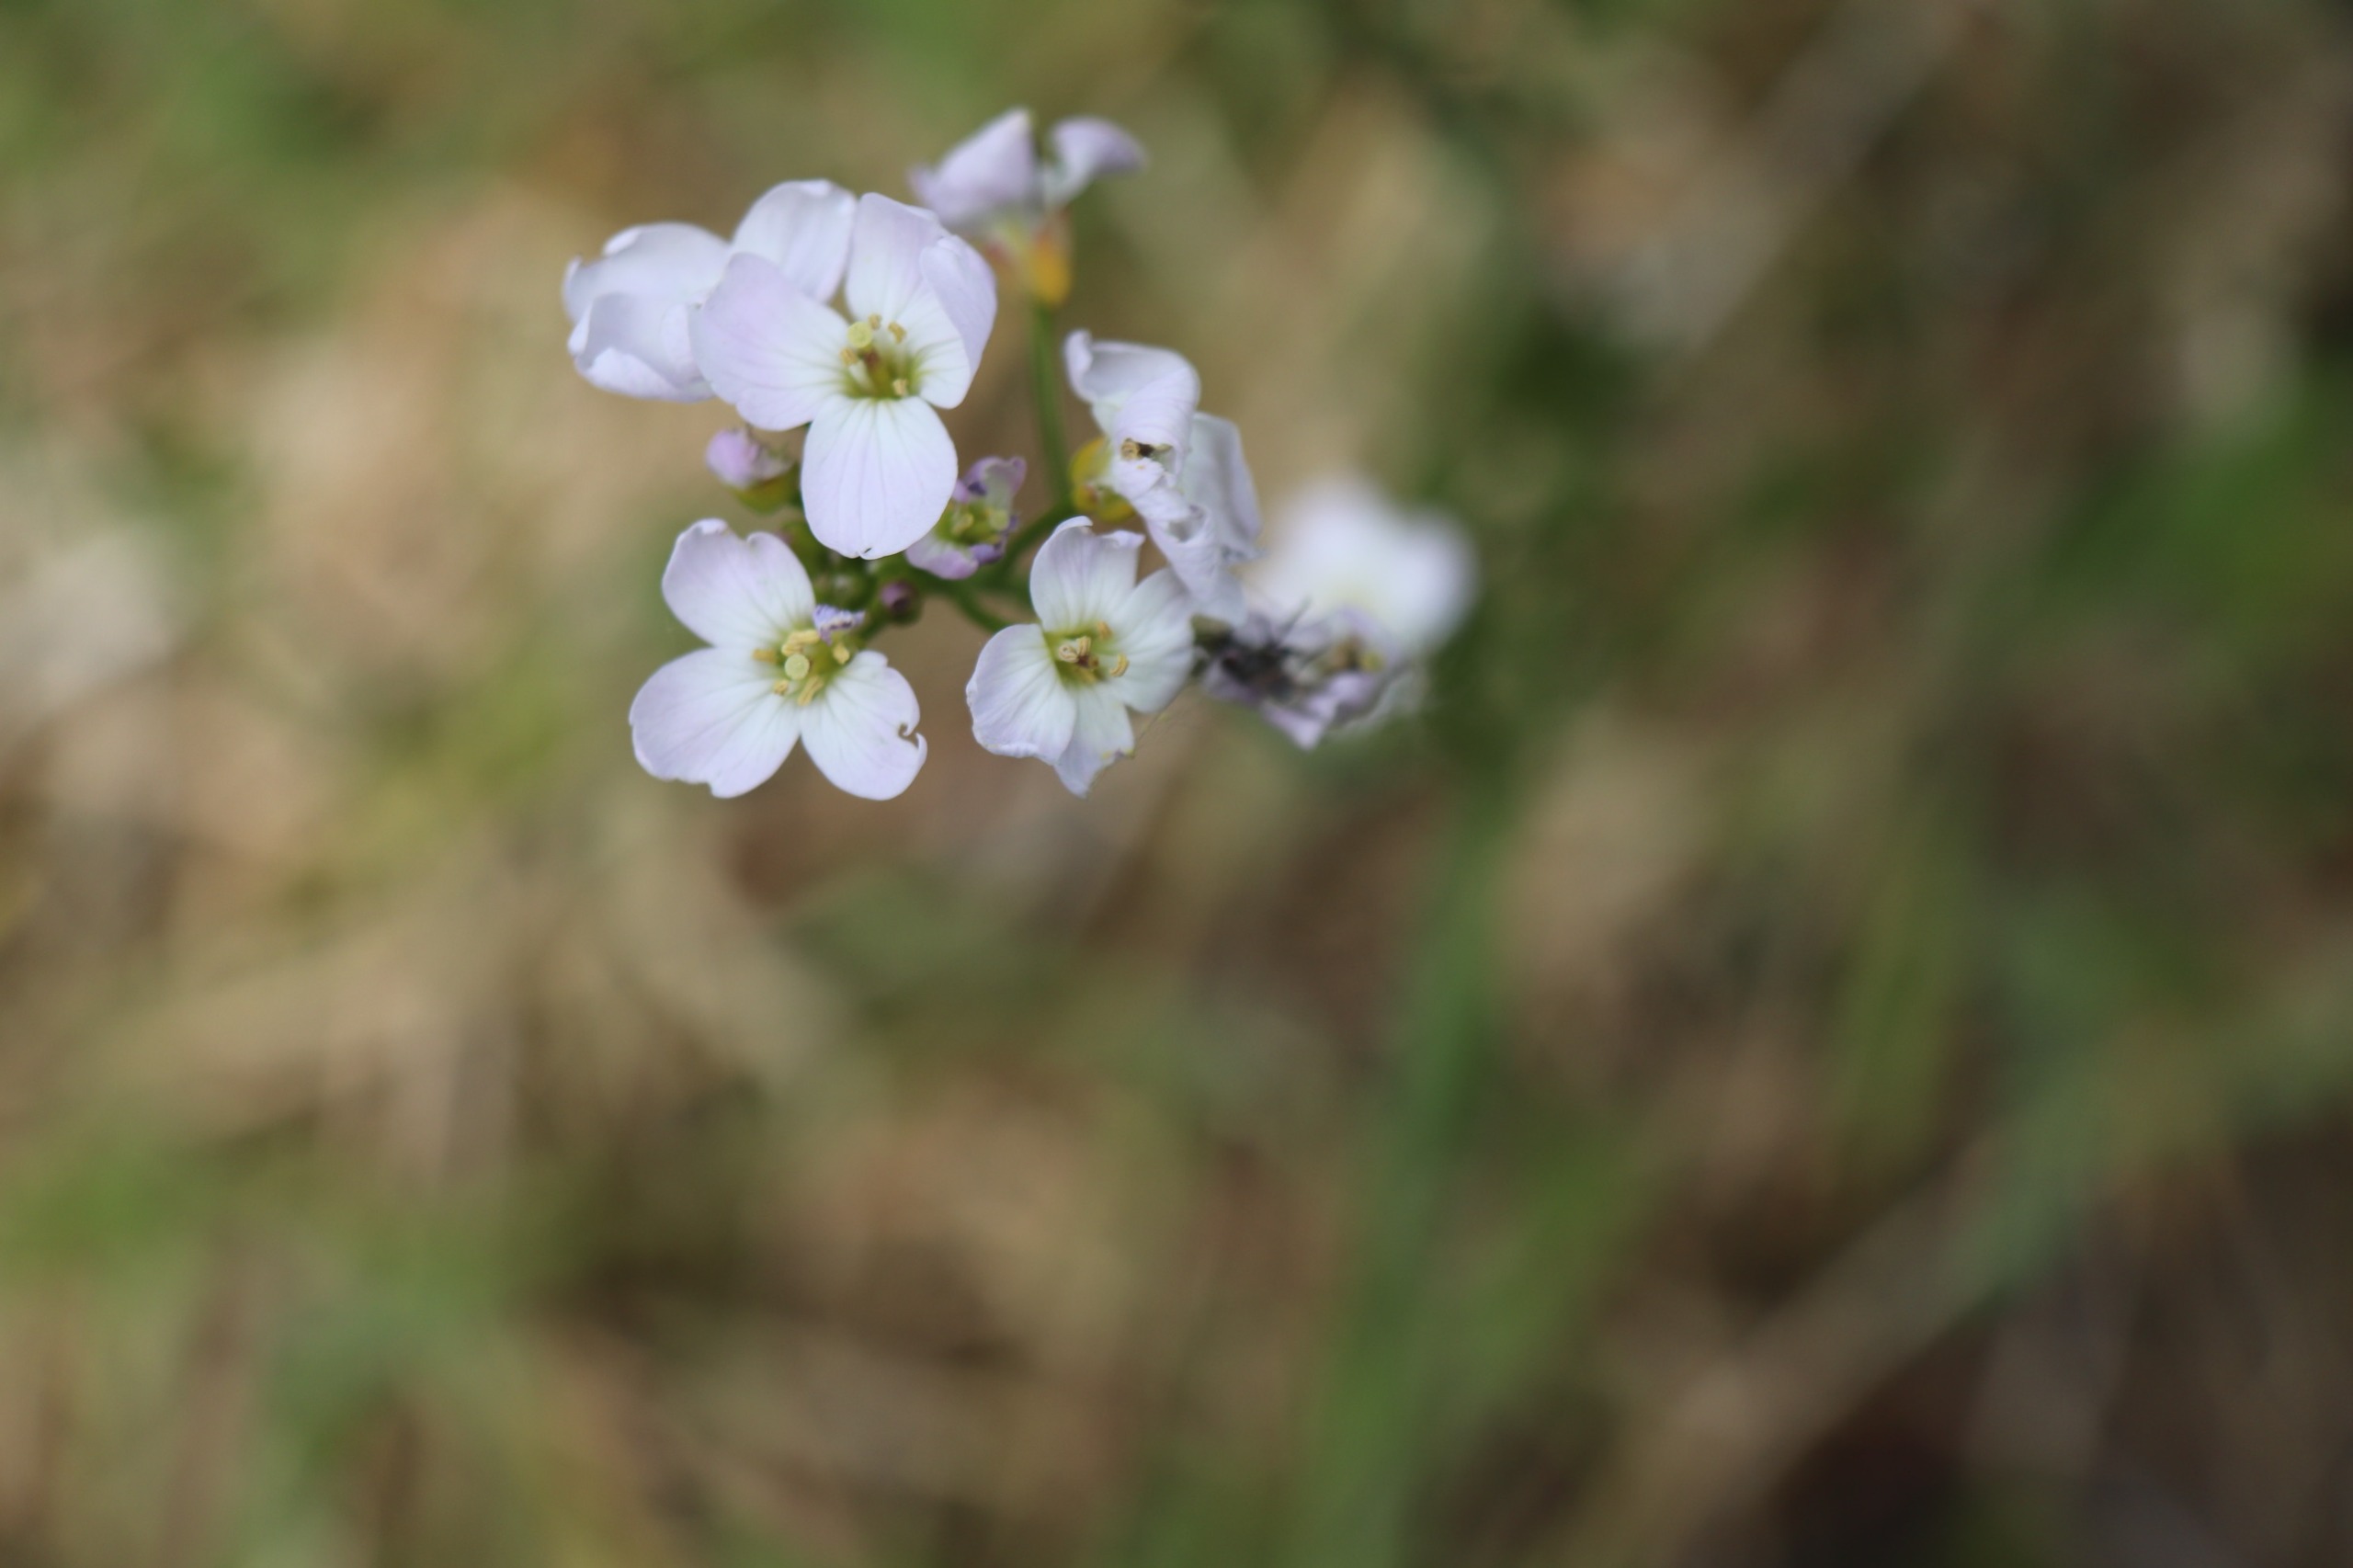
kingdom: Plantae
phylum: Tracheophyta
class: Magnoliopsida
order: Brassicales
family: Brassicaceae
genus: Cardamine
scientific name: Cardamine pratensis
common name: Engkarse
